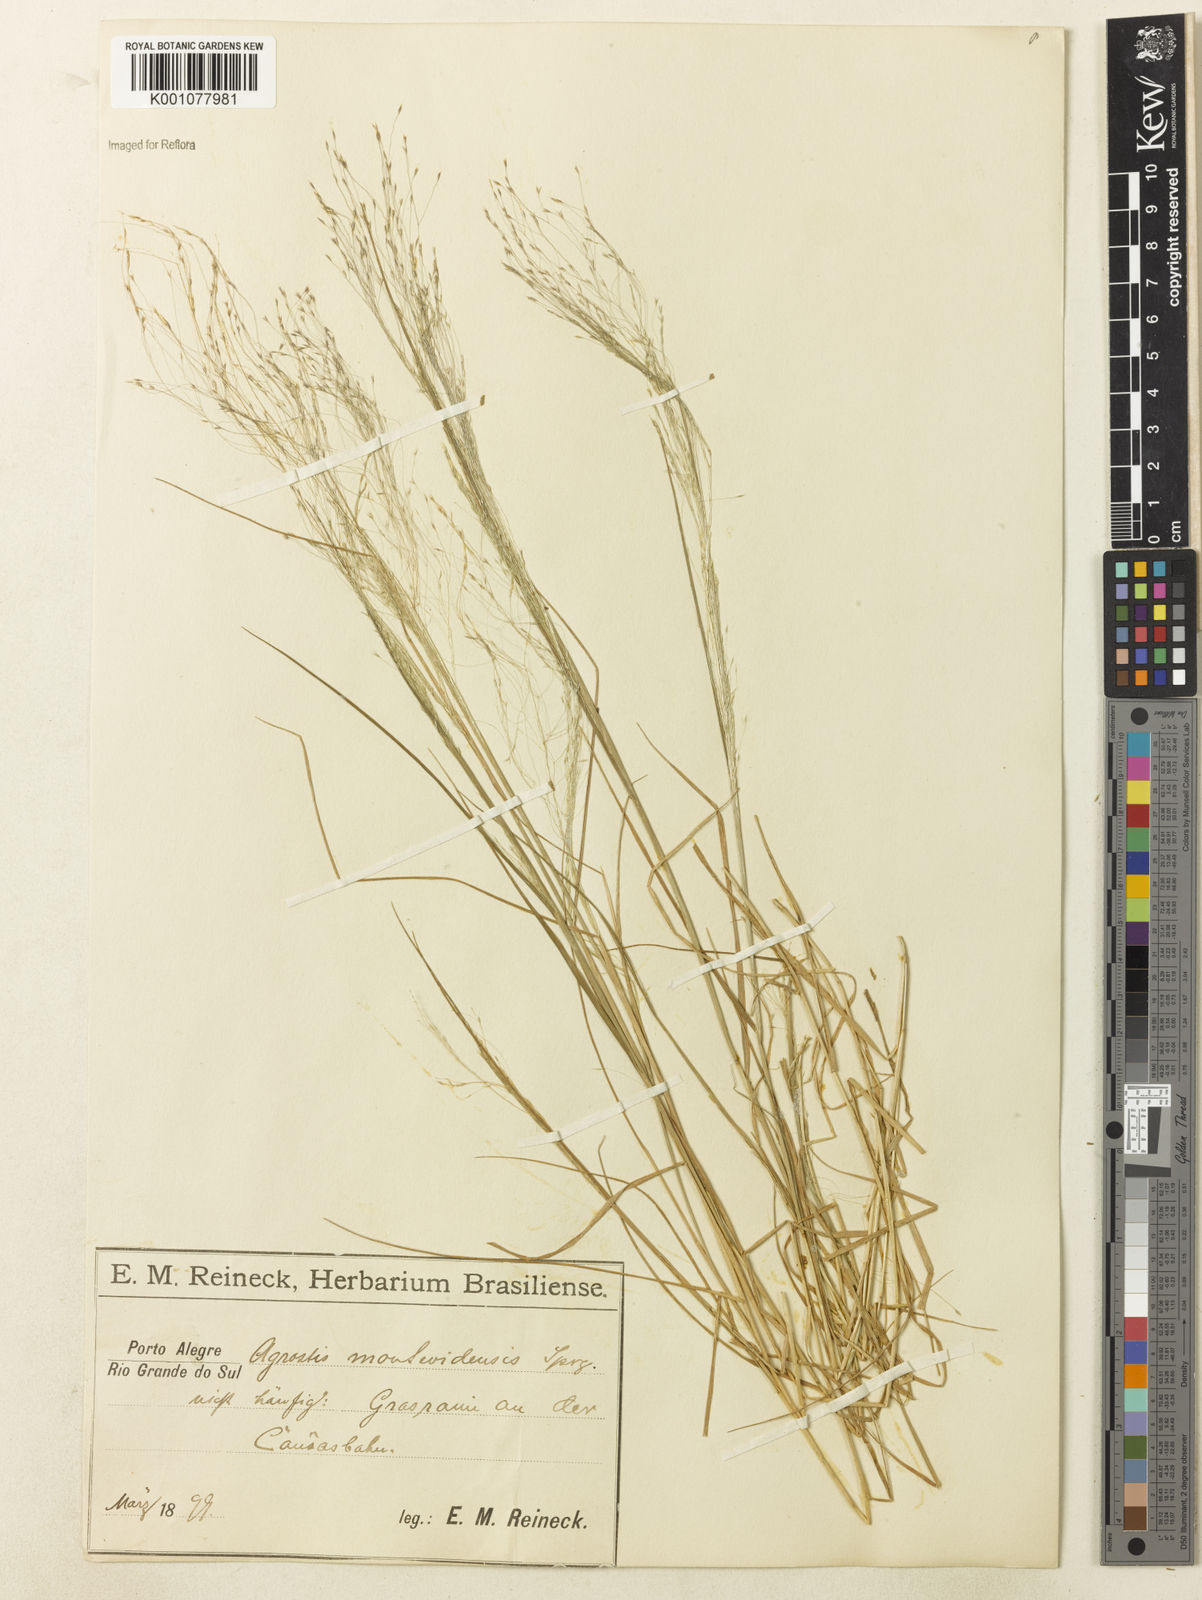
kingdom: Plantae
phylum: Tracheophyta
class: Liliopsida
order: Poales
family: Poaceae
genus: Agrostis
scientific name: Agrostis montevidensis
